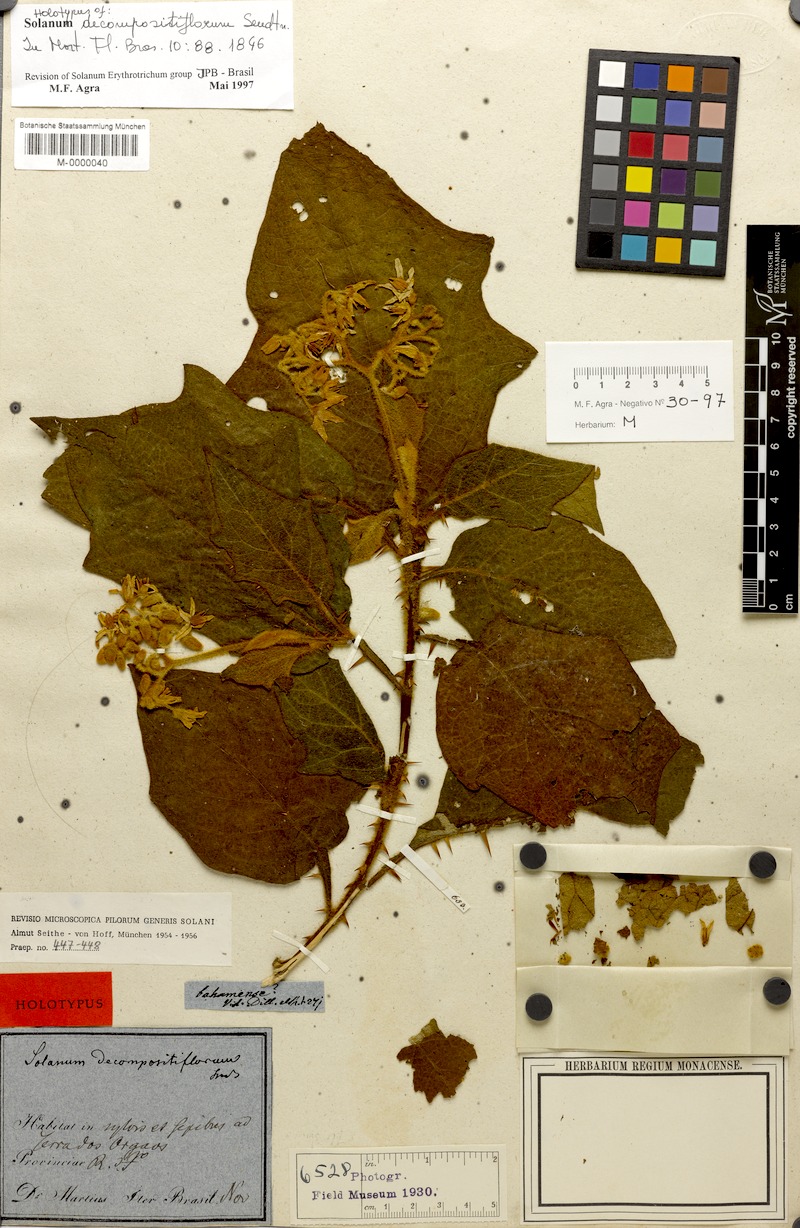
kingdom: Plantae
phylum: Tracheophyta
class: Magnoliopsida
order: Solanales
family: Solanaceae
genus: Solanum
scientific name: Solanum decompositiflorum
